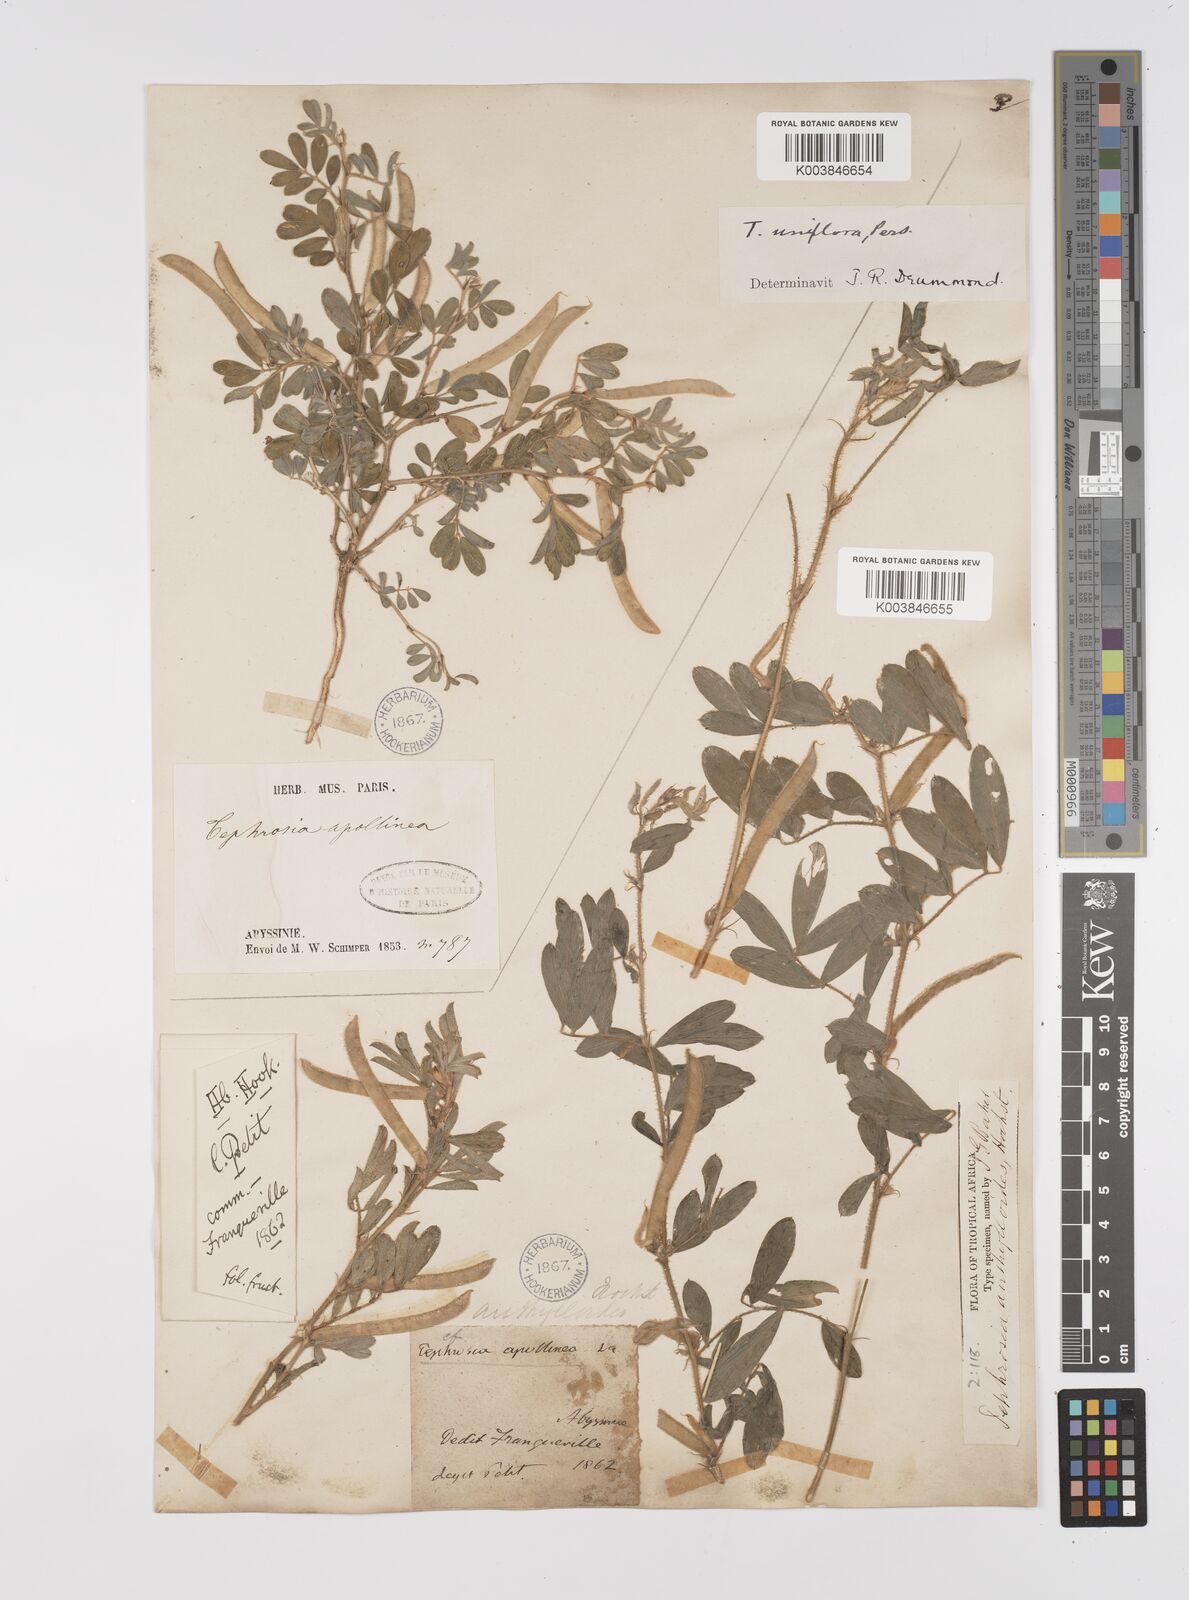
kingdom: Plantae
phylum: Tracheophyta
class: Magnoliopsida
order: Fabales
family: Fabaceae
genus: Tephrosia
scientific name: Tephrosia uniflora
